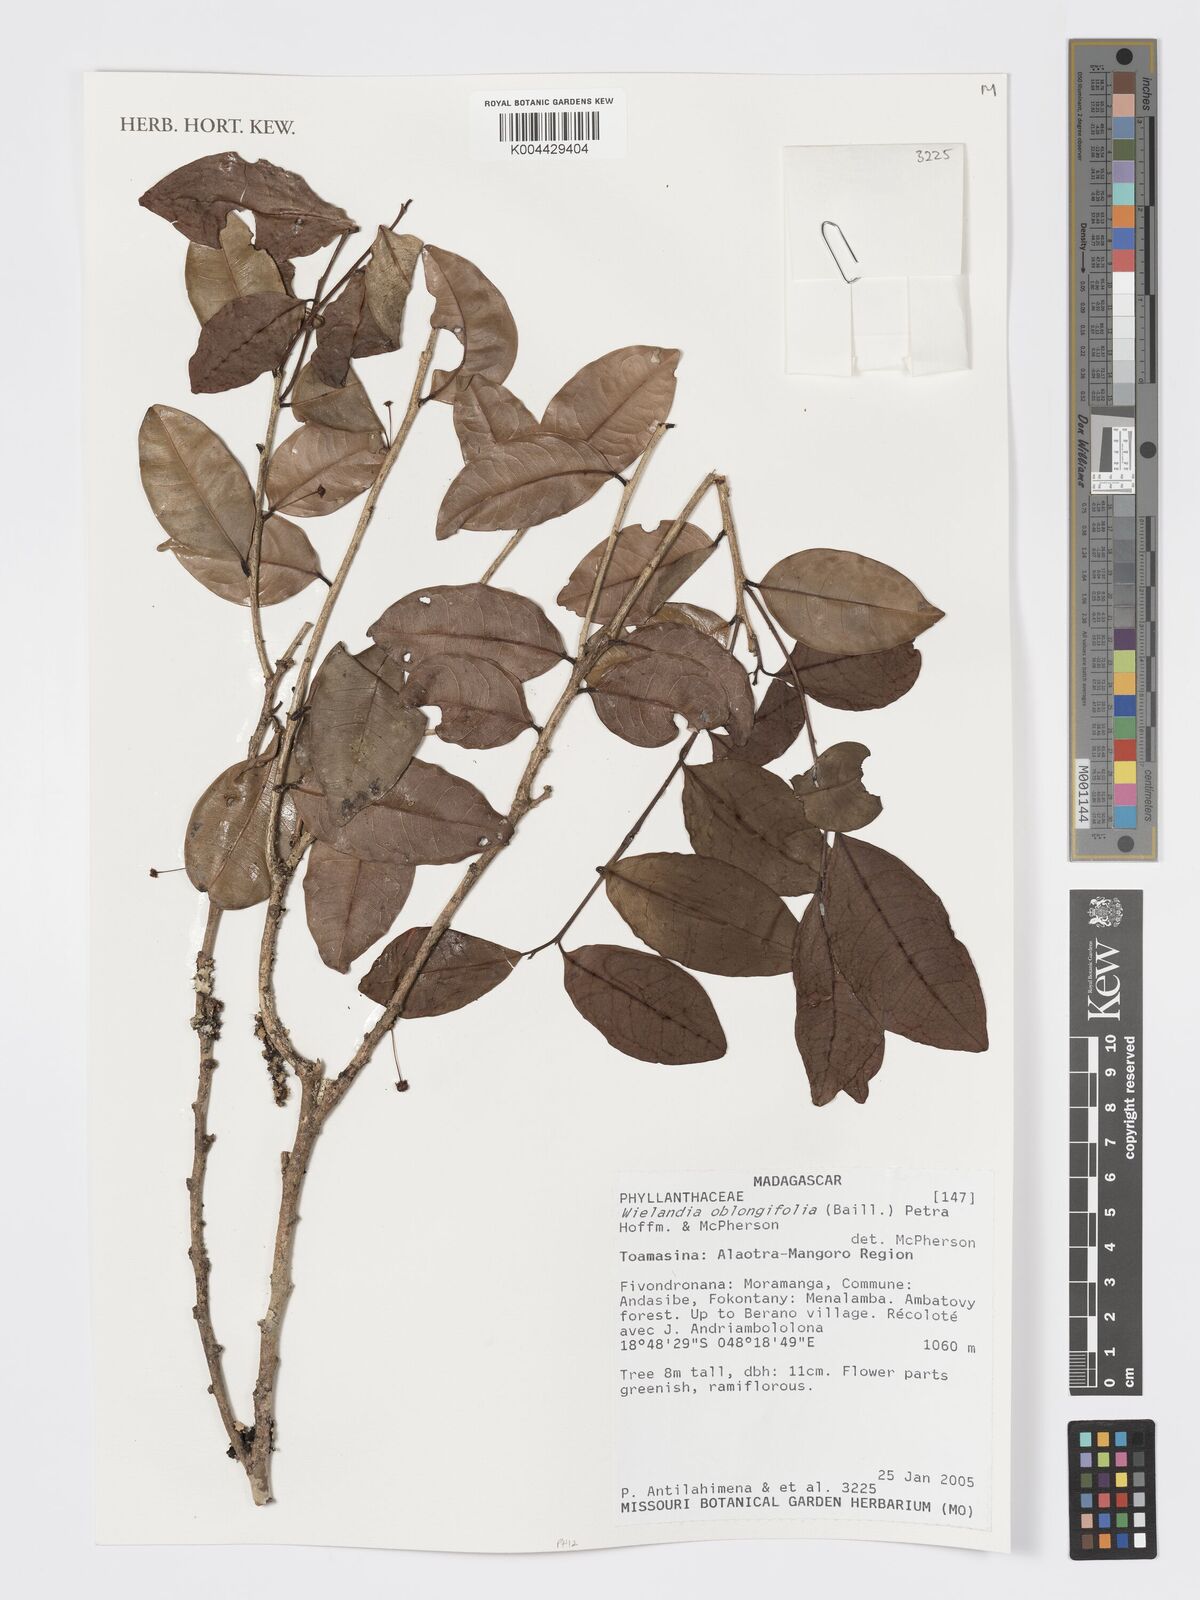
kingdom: Plantae
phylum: Tracheophyta
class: Magnoliopsida
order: Malpighiales
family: Phyllanthaceae
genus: Wielandia
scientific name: Wielandia oblongifolia
